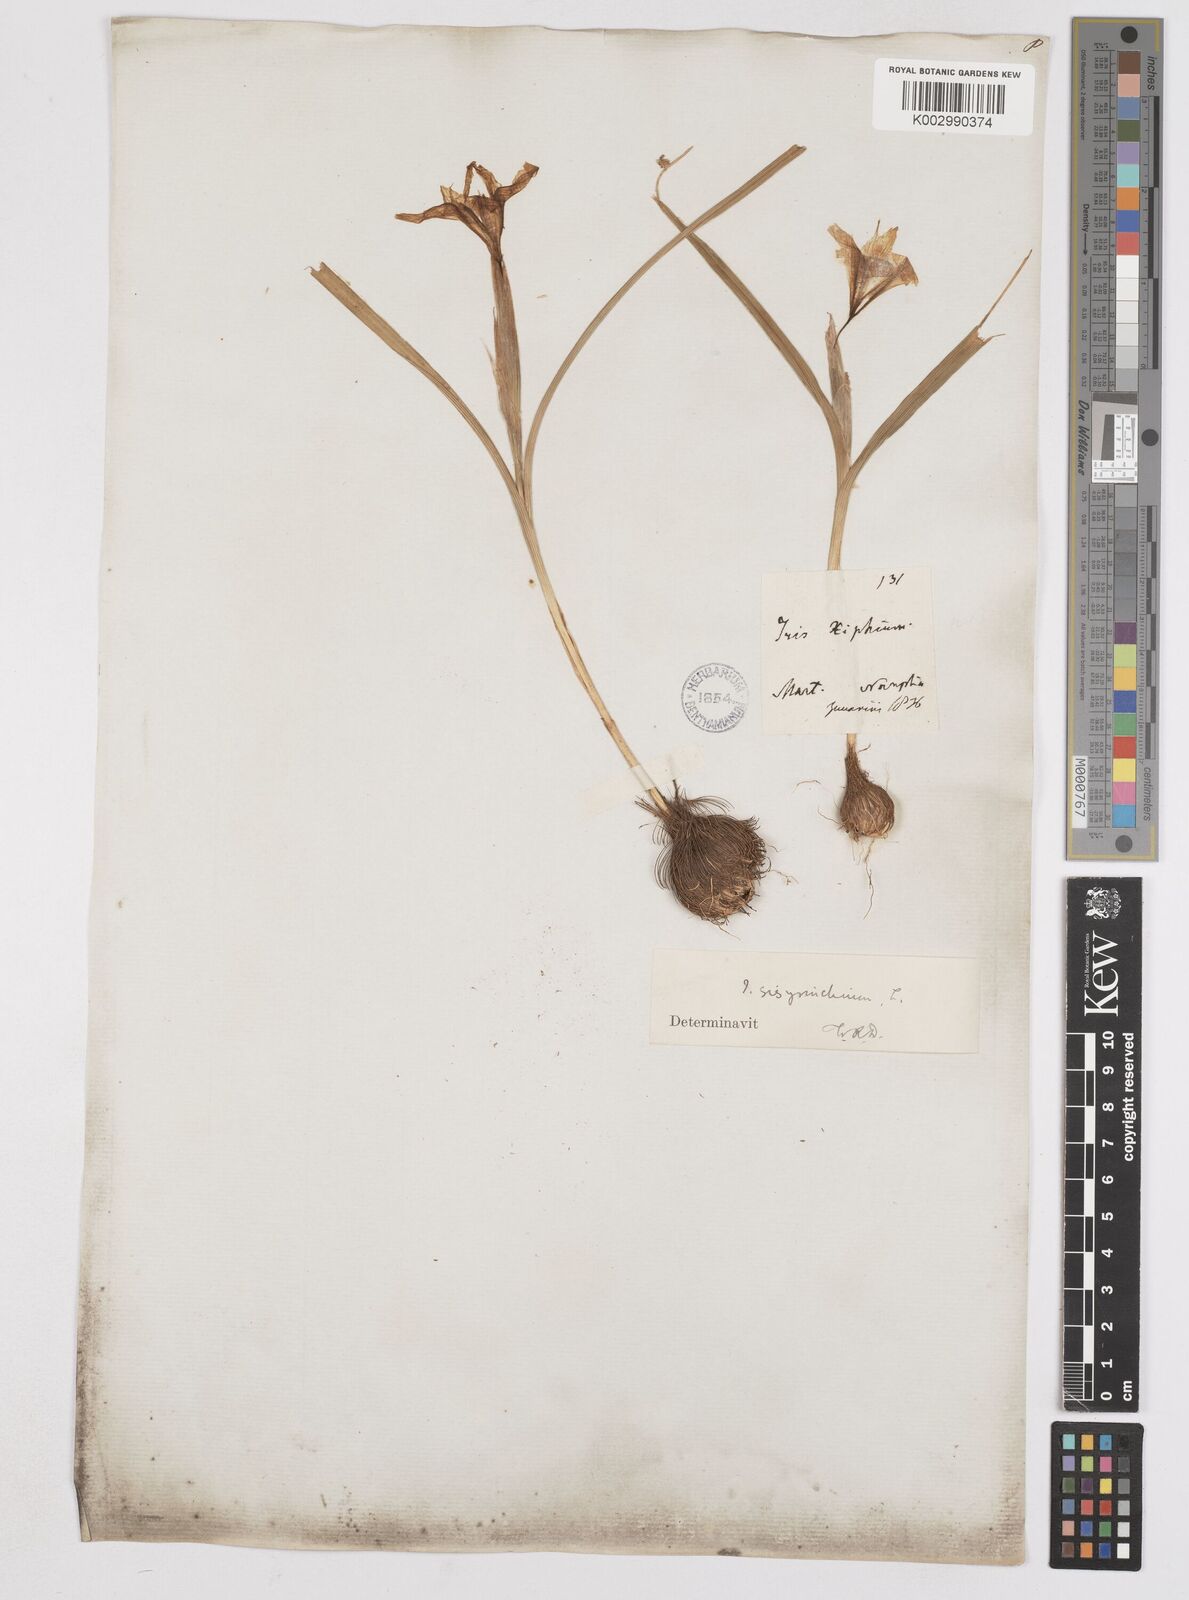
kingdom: Plantae
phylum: Tracheophyta
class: Liliopsida
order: Asparagales
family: Iridaceae
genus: Moraea
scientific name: Moraea sisyrinchium
